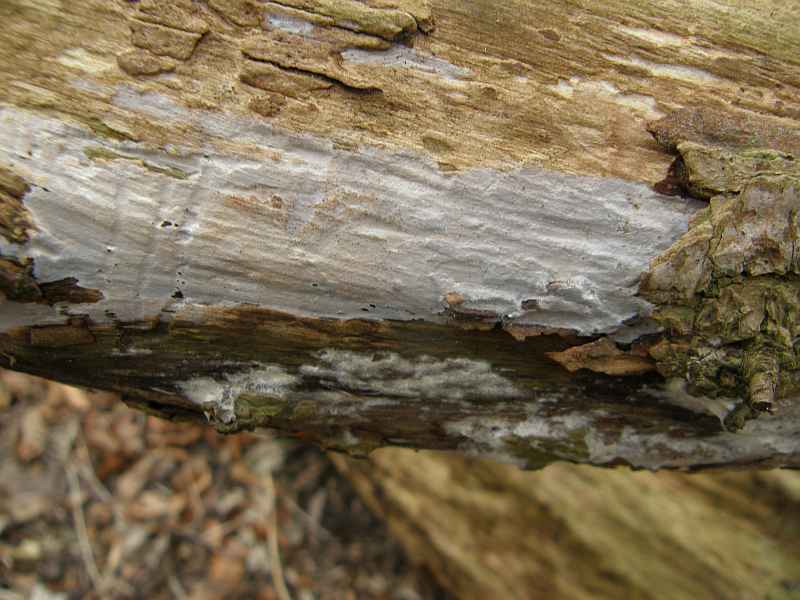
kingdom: Fungi
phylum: Basidiomycota
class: Tremellomycetes
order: Tremellales
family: Exidiaceae
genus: Exidiopsis
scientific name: Exidiopsis effusa
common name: smuk bævrehinde
